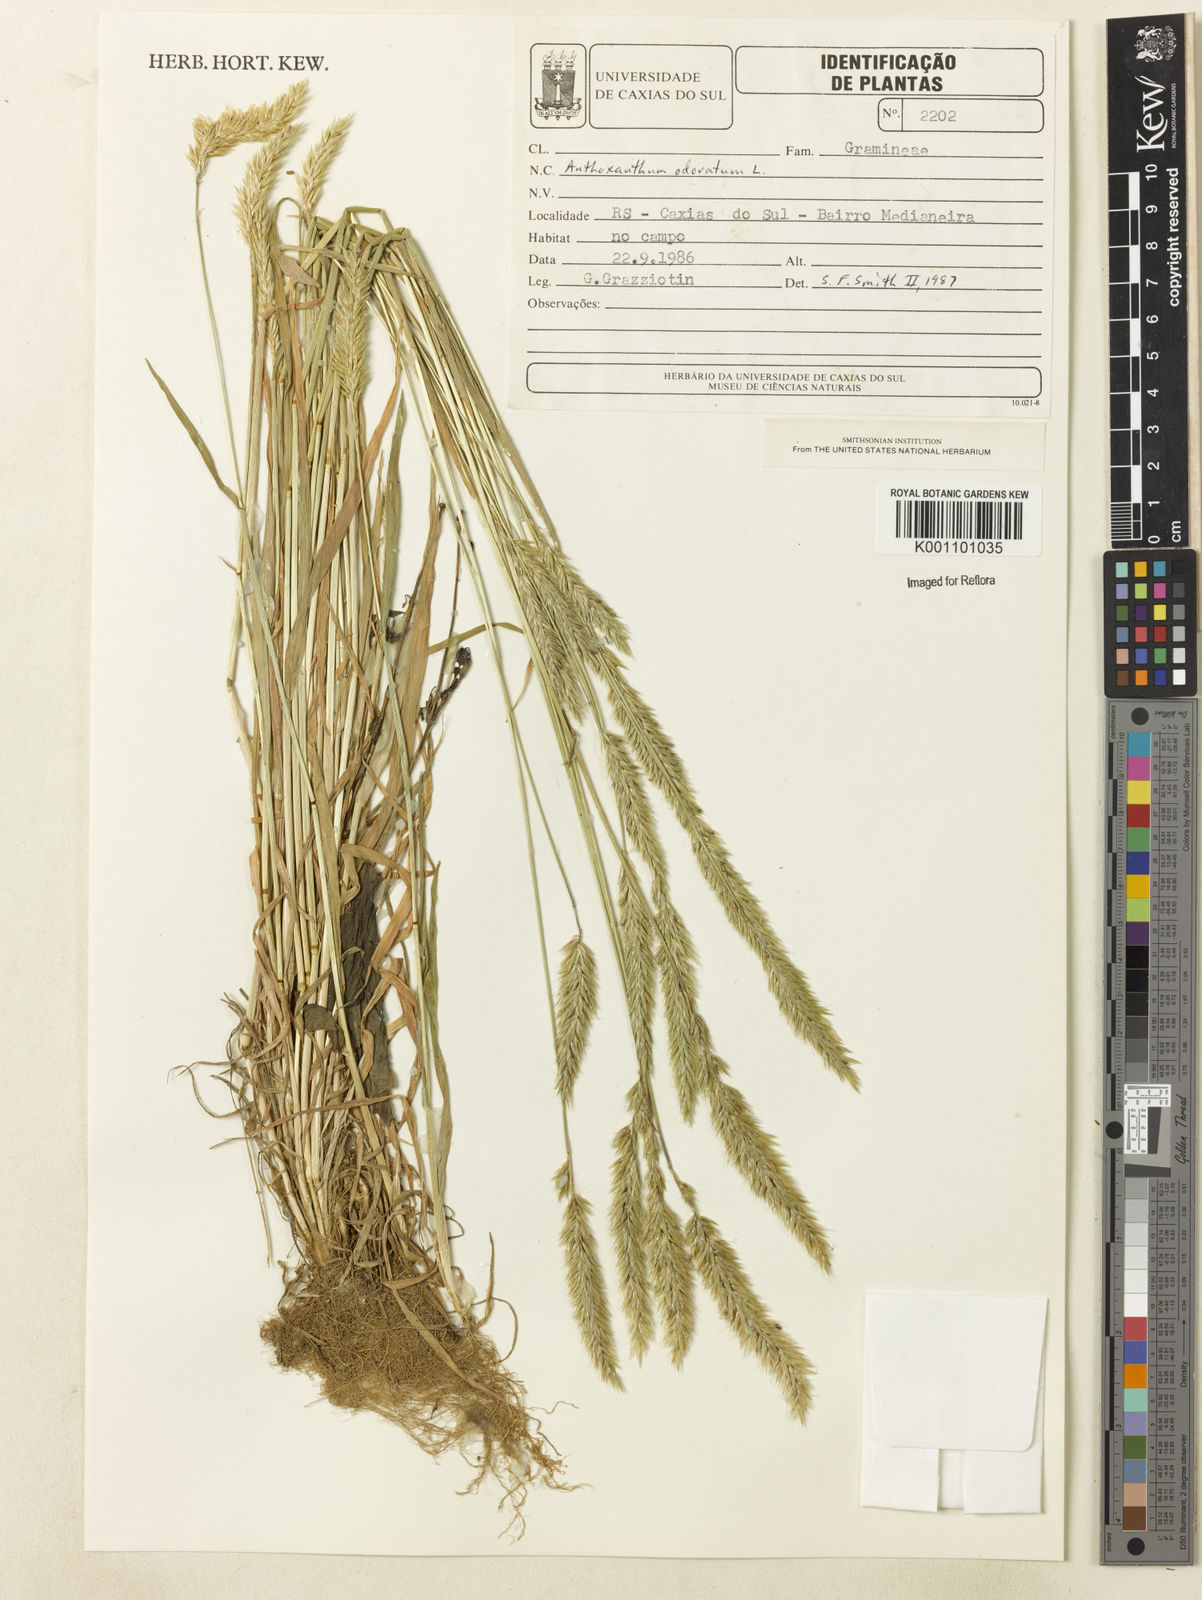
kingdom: Plantae
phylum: Tracheophyta
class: Liliopsida
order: Poales
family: Poaceae
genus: Anthoxanthum
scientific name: Anthoxanthum odoratum
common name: Sweet vernalgrass
